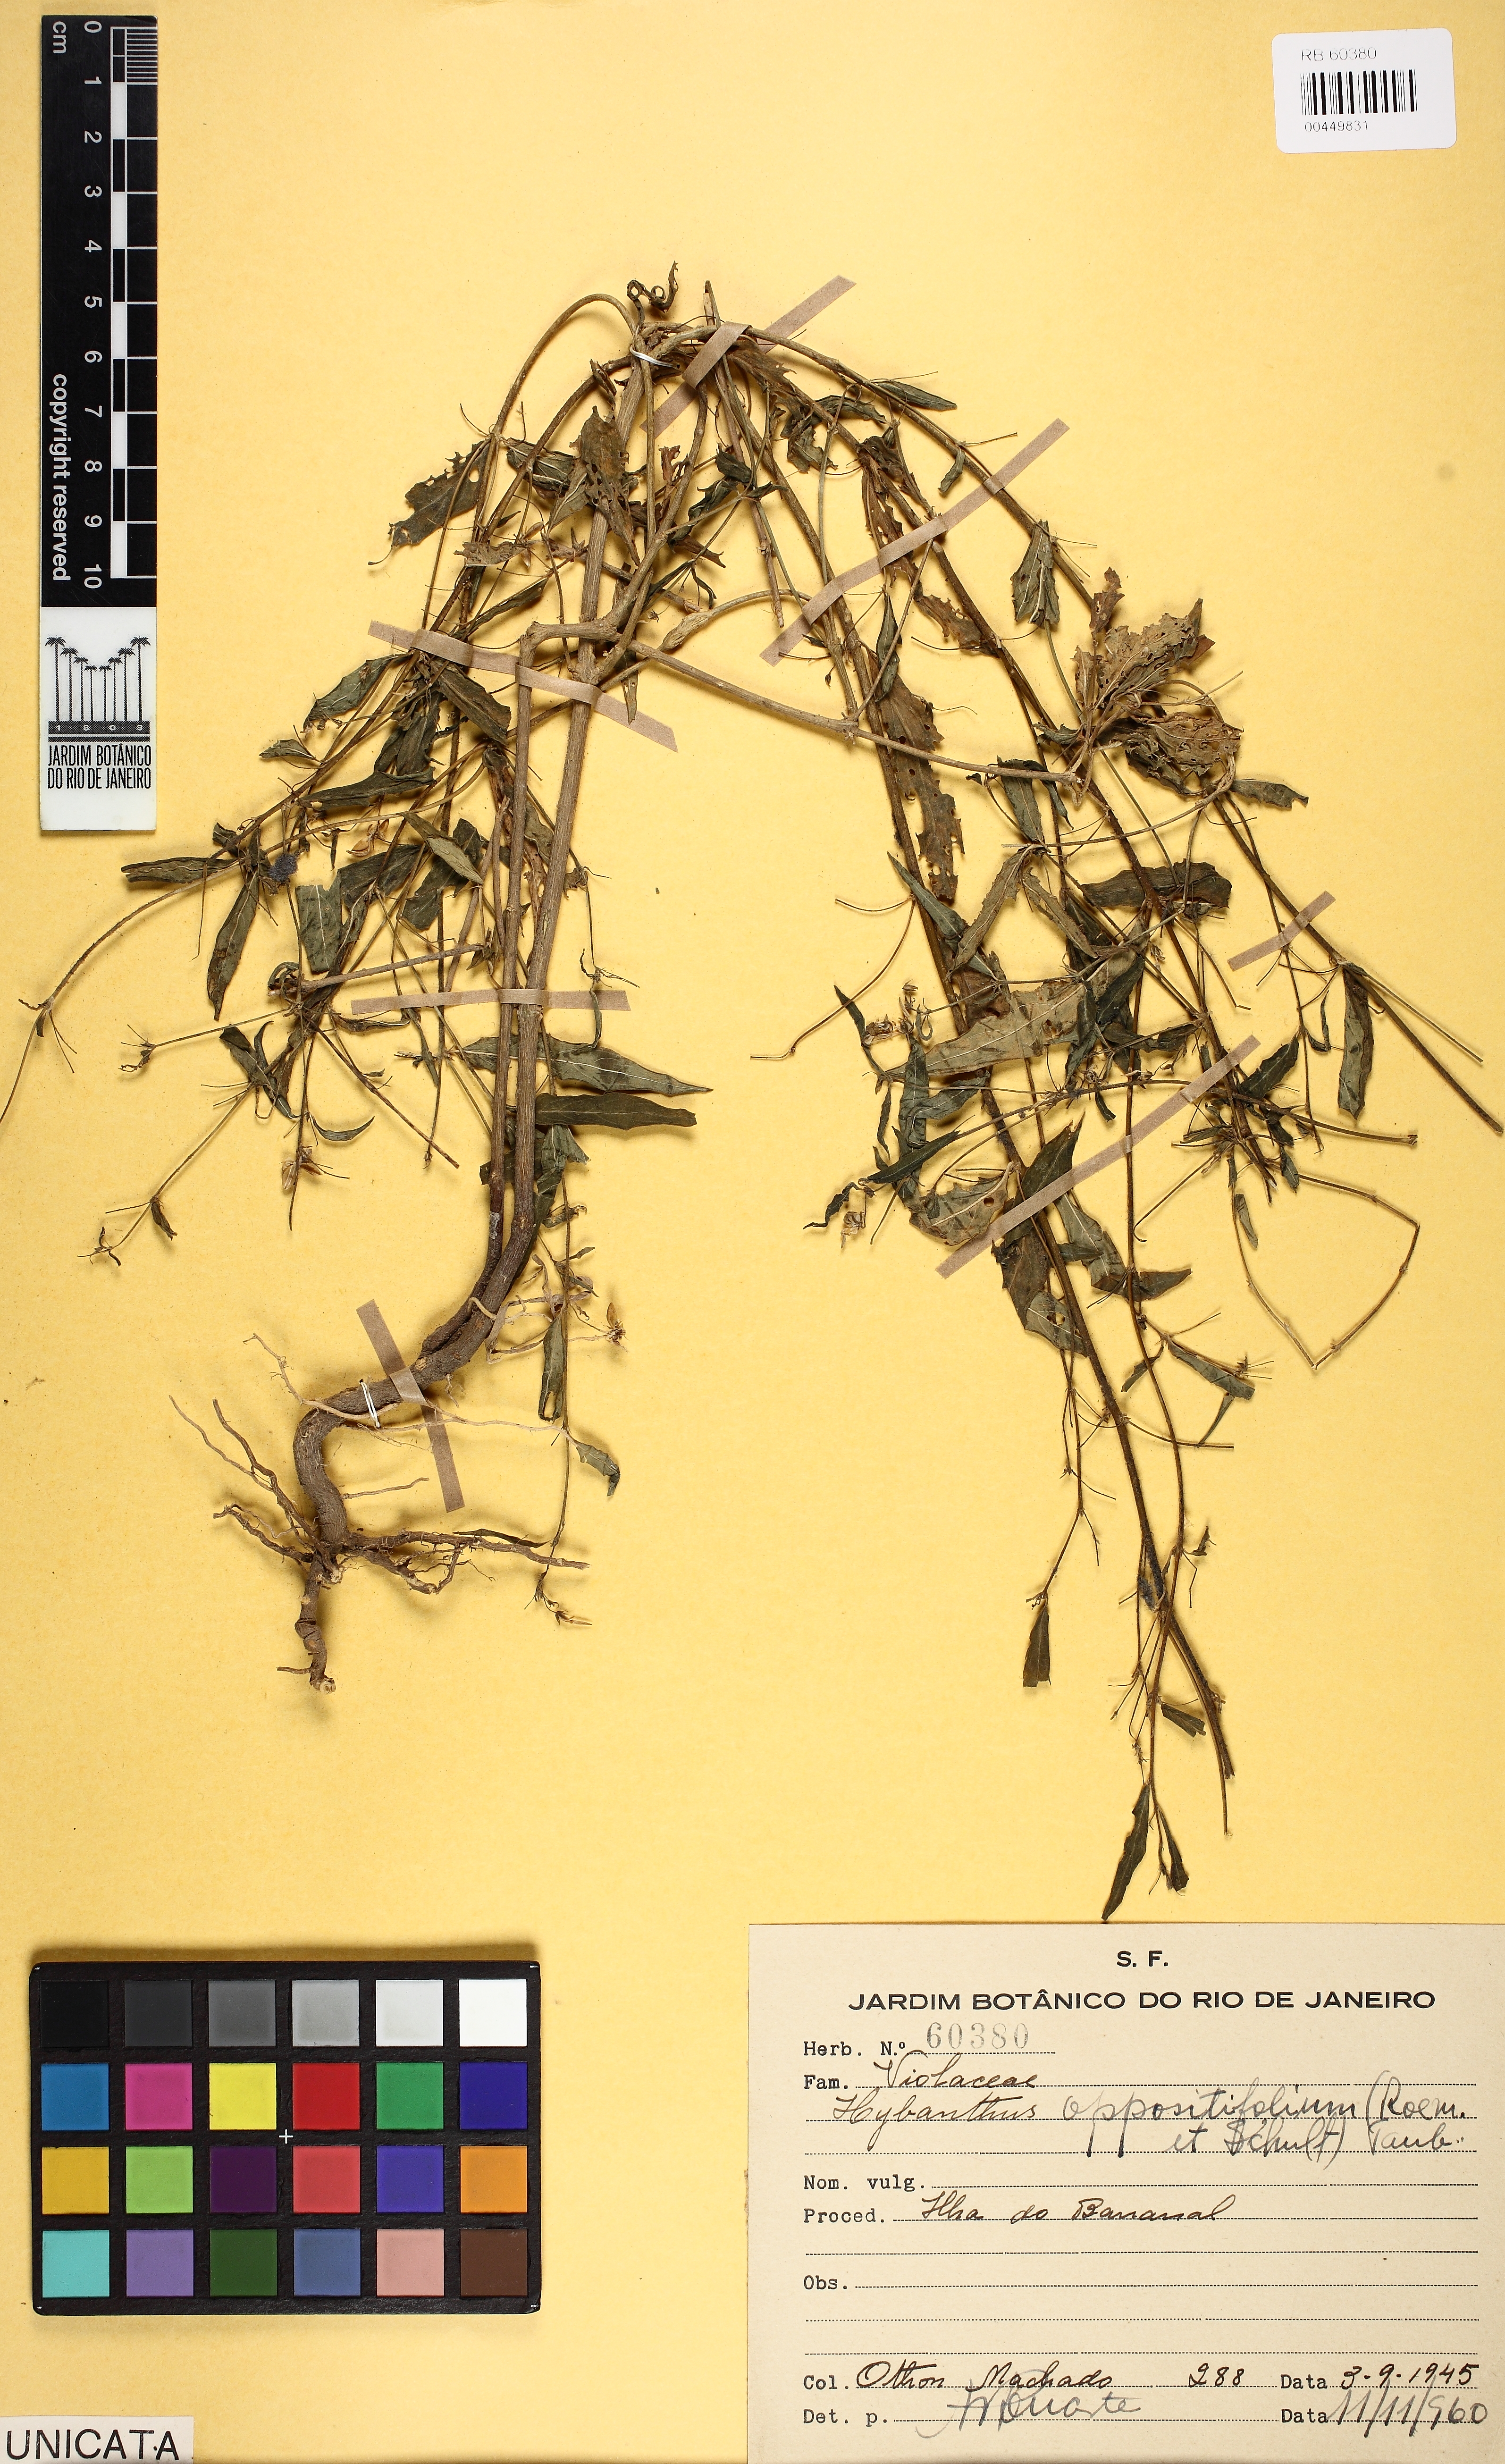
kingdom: Plantae
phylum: Tracheophyta
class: Magnoliopsida
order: Malpighiales
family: Violaceae
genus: Pombalia
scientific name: Pombalia oppositifolia
